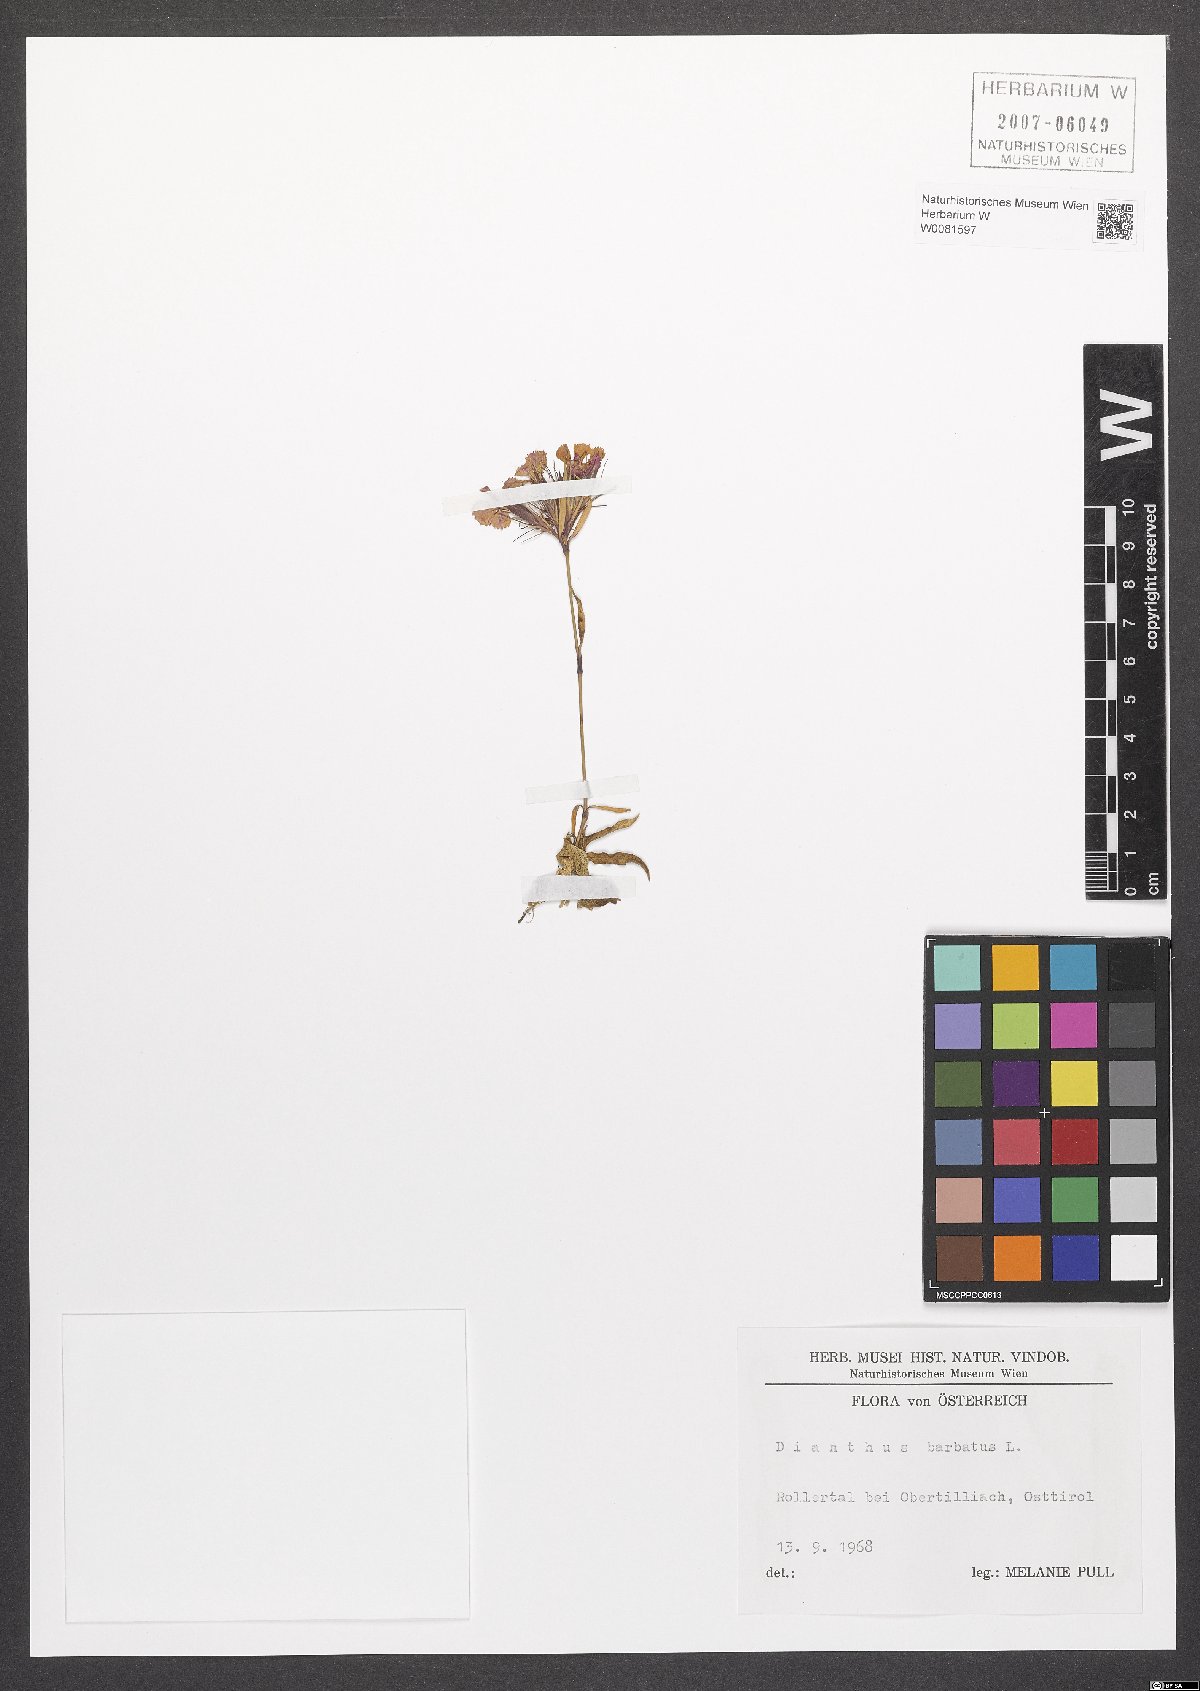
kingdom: Plantae
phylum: Tracheophyta
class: Magnoliopsida
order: Caryophyllales
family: Caryophyllaceae
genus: Dianthus
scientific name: Dianthus barbatus
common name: Sweet-william
